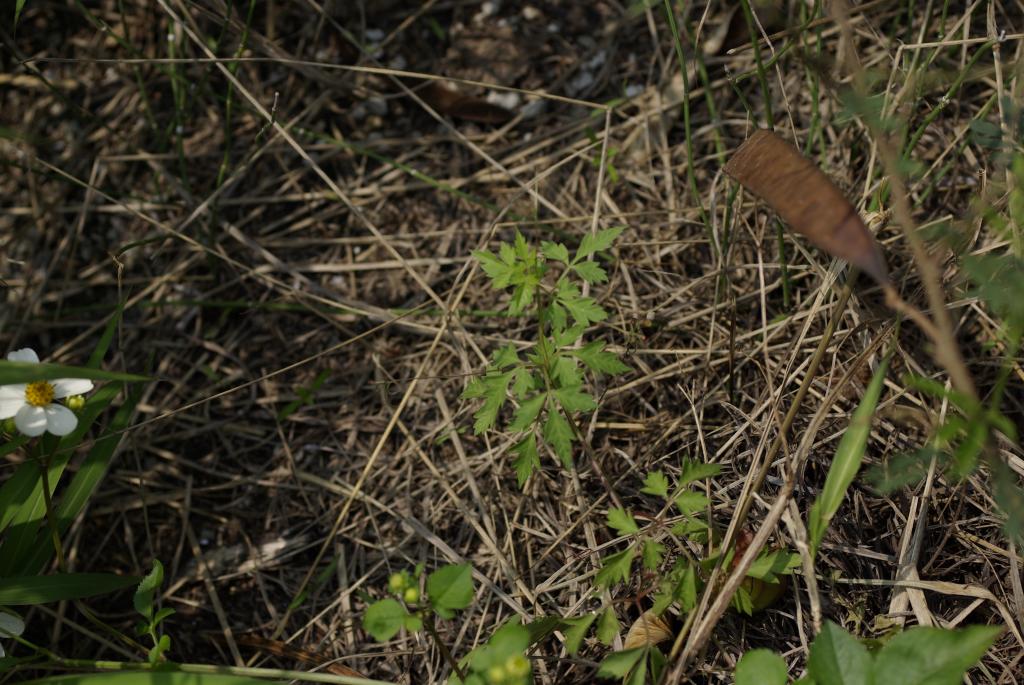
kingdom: Plantae
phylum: Tracheophyta
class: Magnoliopsida
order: Sapindales
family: Sapindaceae
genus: Cardiospermum
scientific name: Cardiospermum halicacabum
